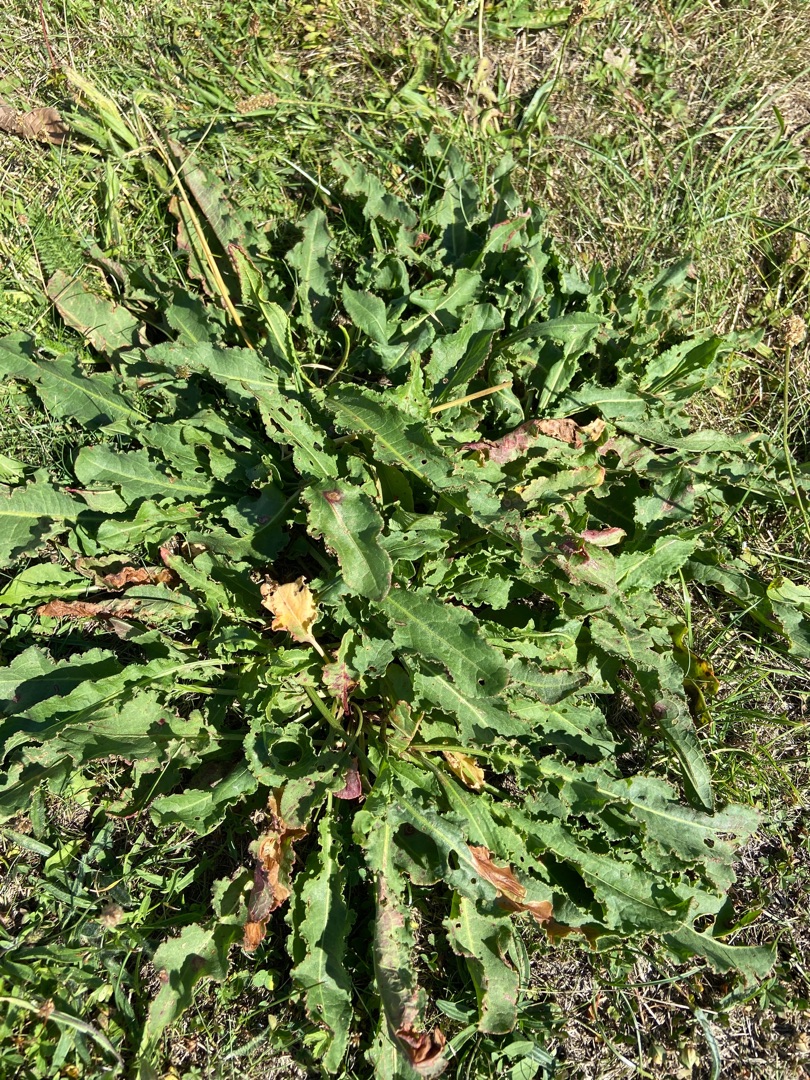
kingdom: Plantae
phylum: Tracheophyta
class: Magnoliopsida
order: Caryophyllales
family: Polygonaceae
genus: Rumex
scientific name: Rumex crispus
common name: Kruset skræppe
